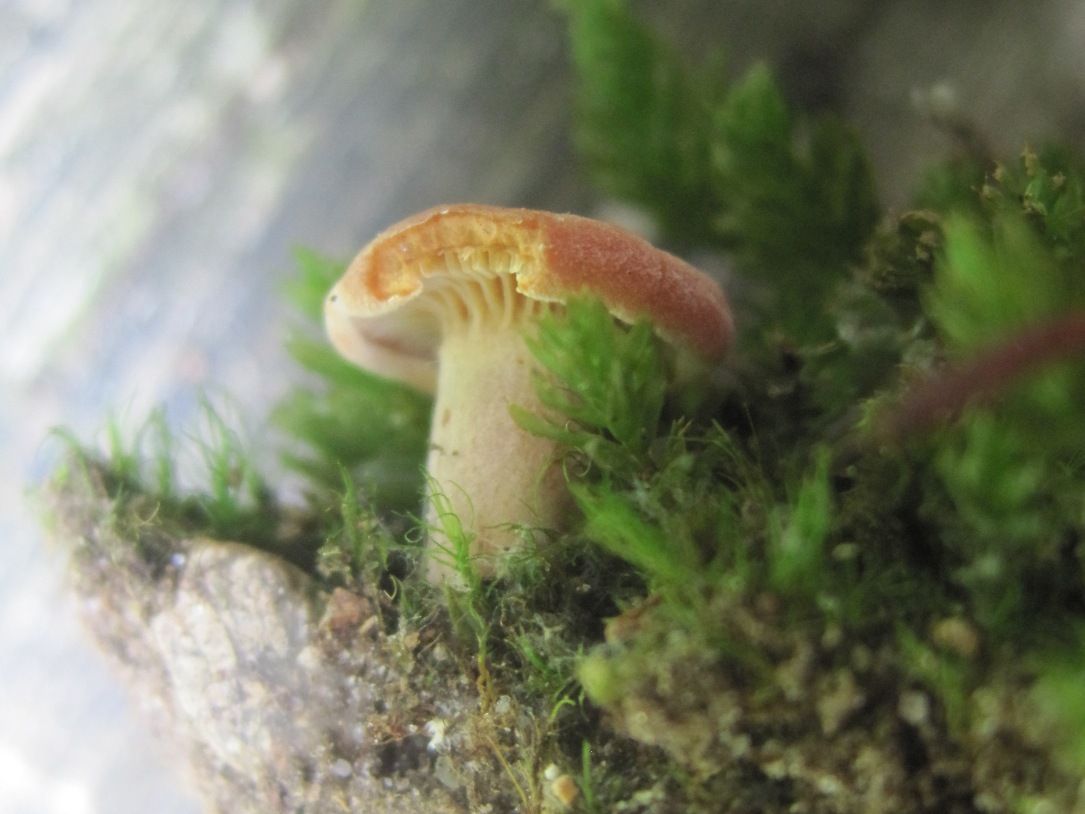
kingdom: Fungi
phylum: Basidiomycota
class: Agaricomycetes
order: Russulales
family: Russulaceae
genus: Lactarius
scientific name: Lactarius rostratus
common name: nubret mælkehat
